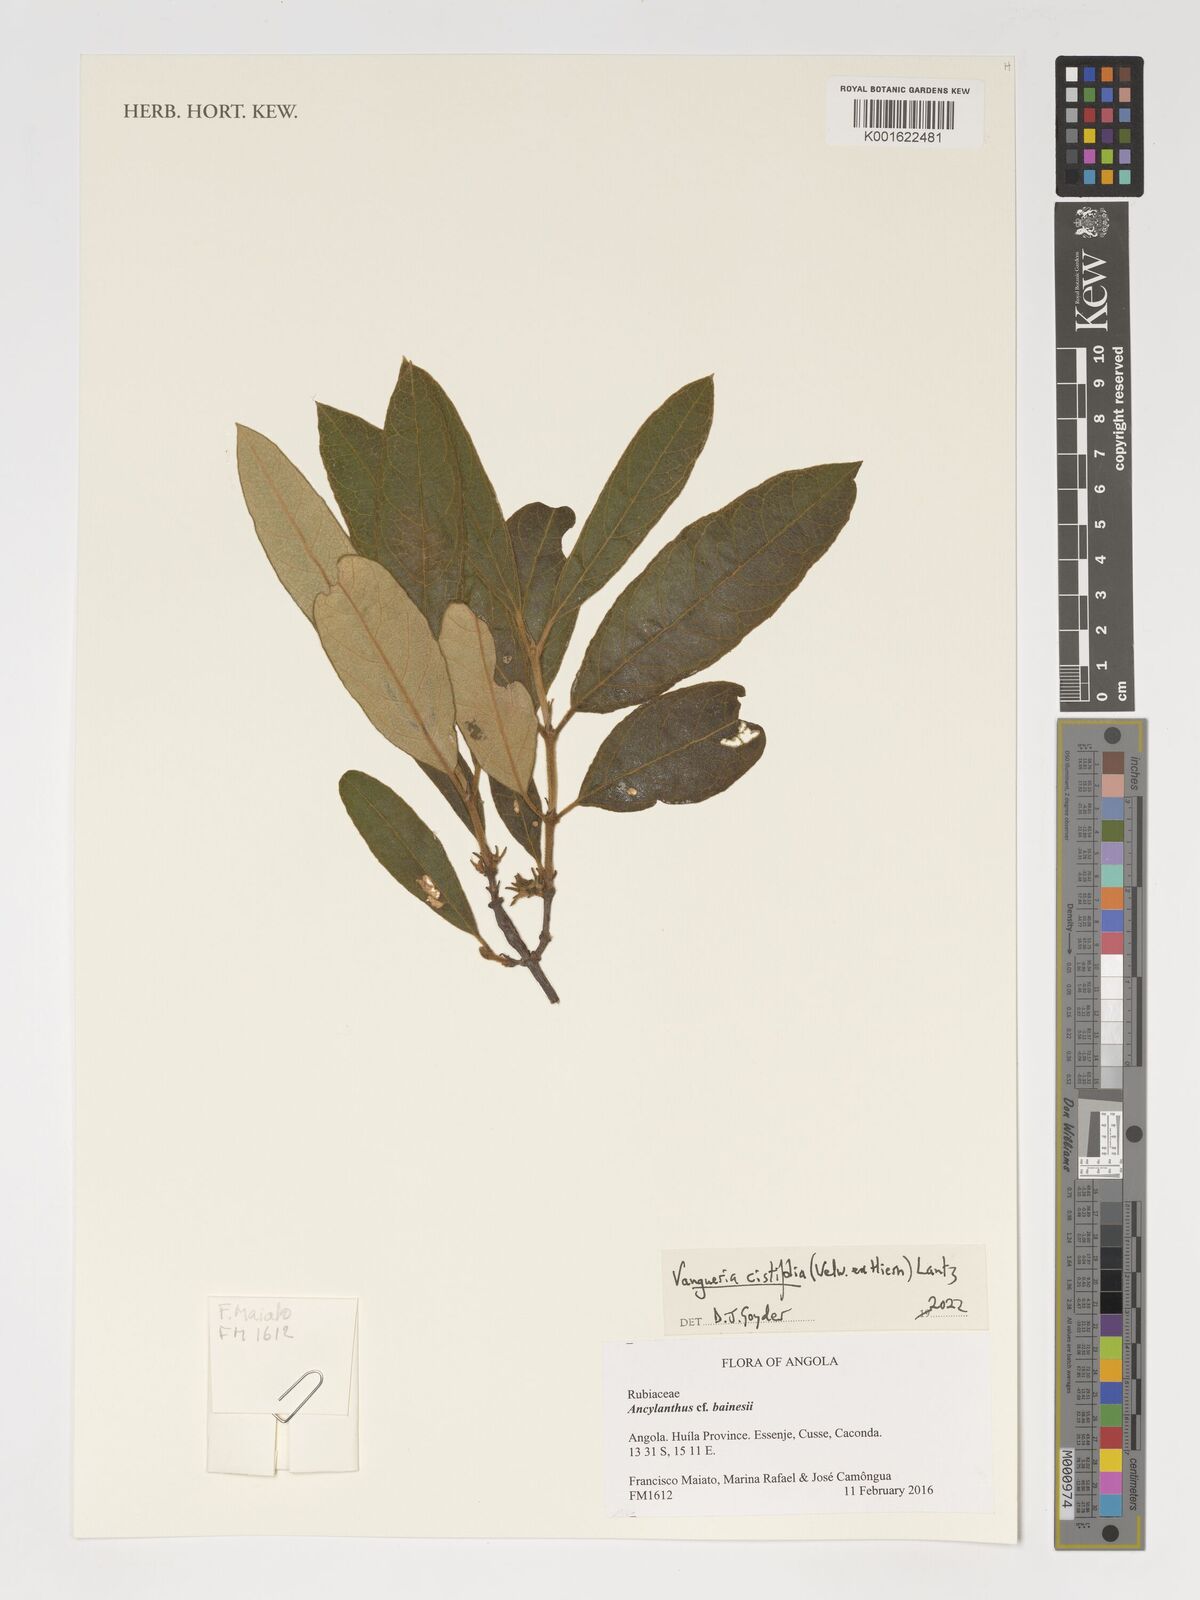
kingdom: Plantae
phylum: Tracheophyta
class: Magnoliopsida
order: Gentianales
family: Rubiaceae
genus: Vangueria
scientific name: Vangueria cistifolia
